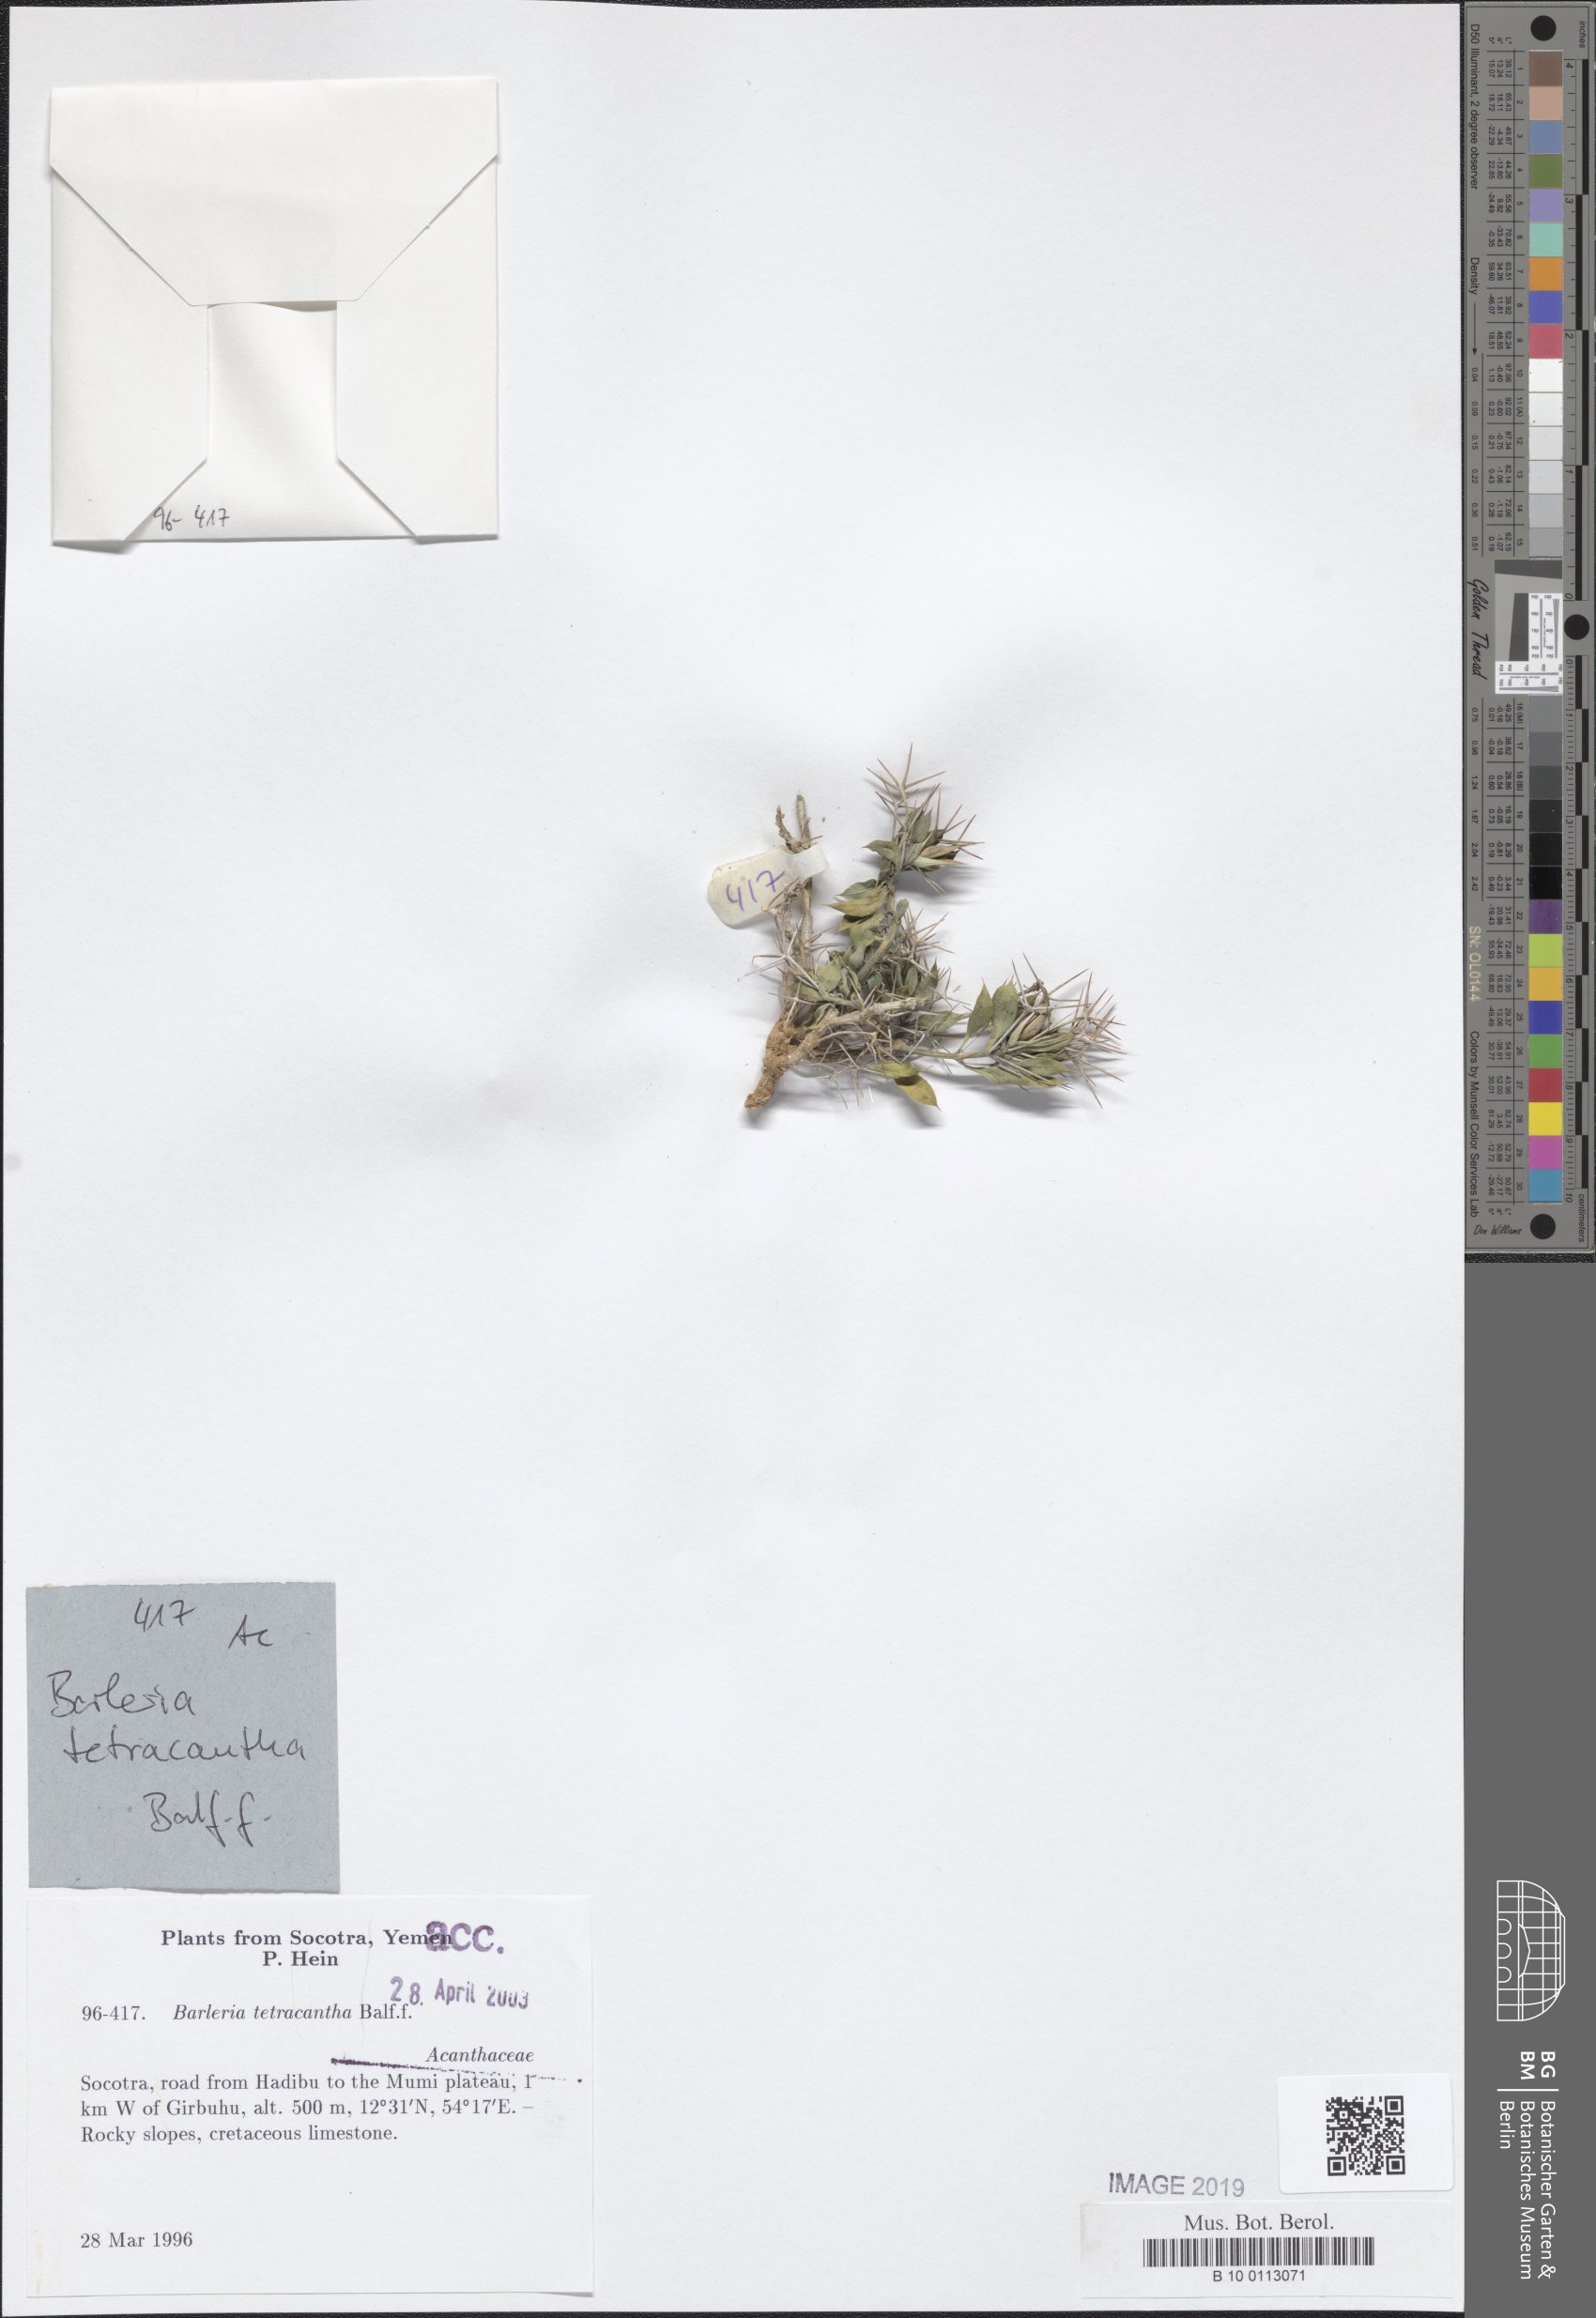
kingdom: Plantae
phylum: Tracheophyta
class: Magnoliopsida
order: Lamiales
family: Acanthaceae
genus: Barleria
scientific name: Barleria tetracantha
